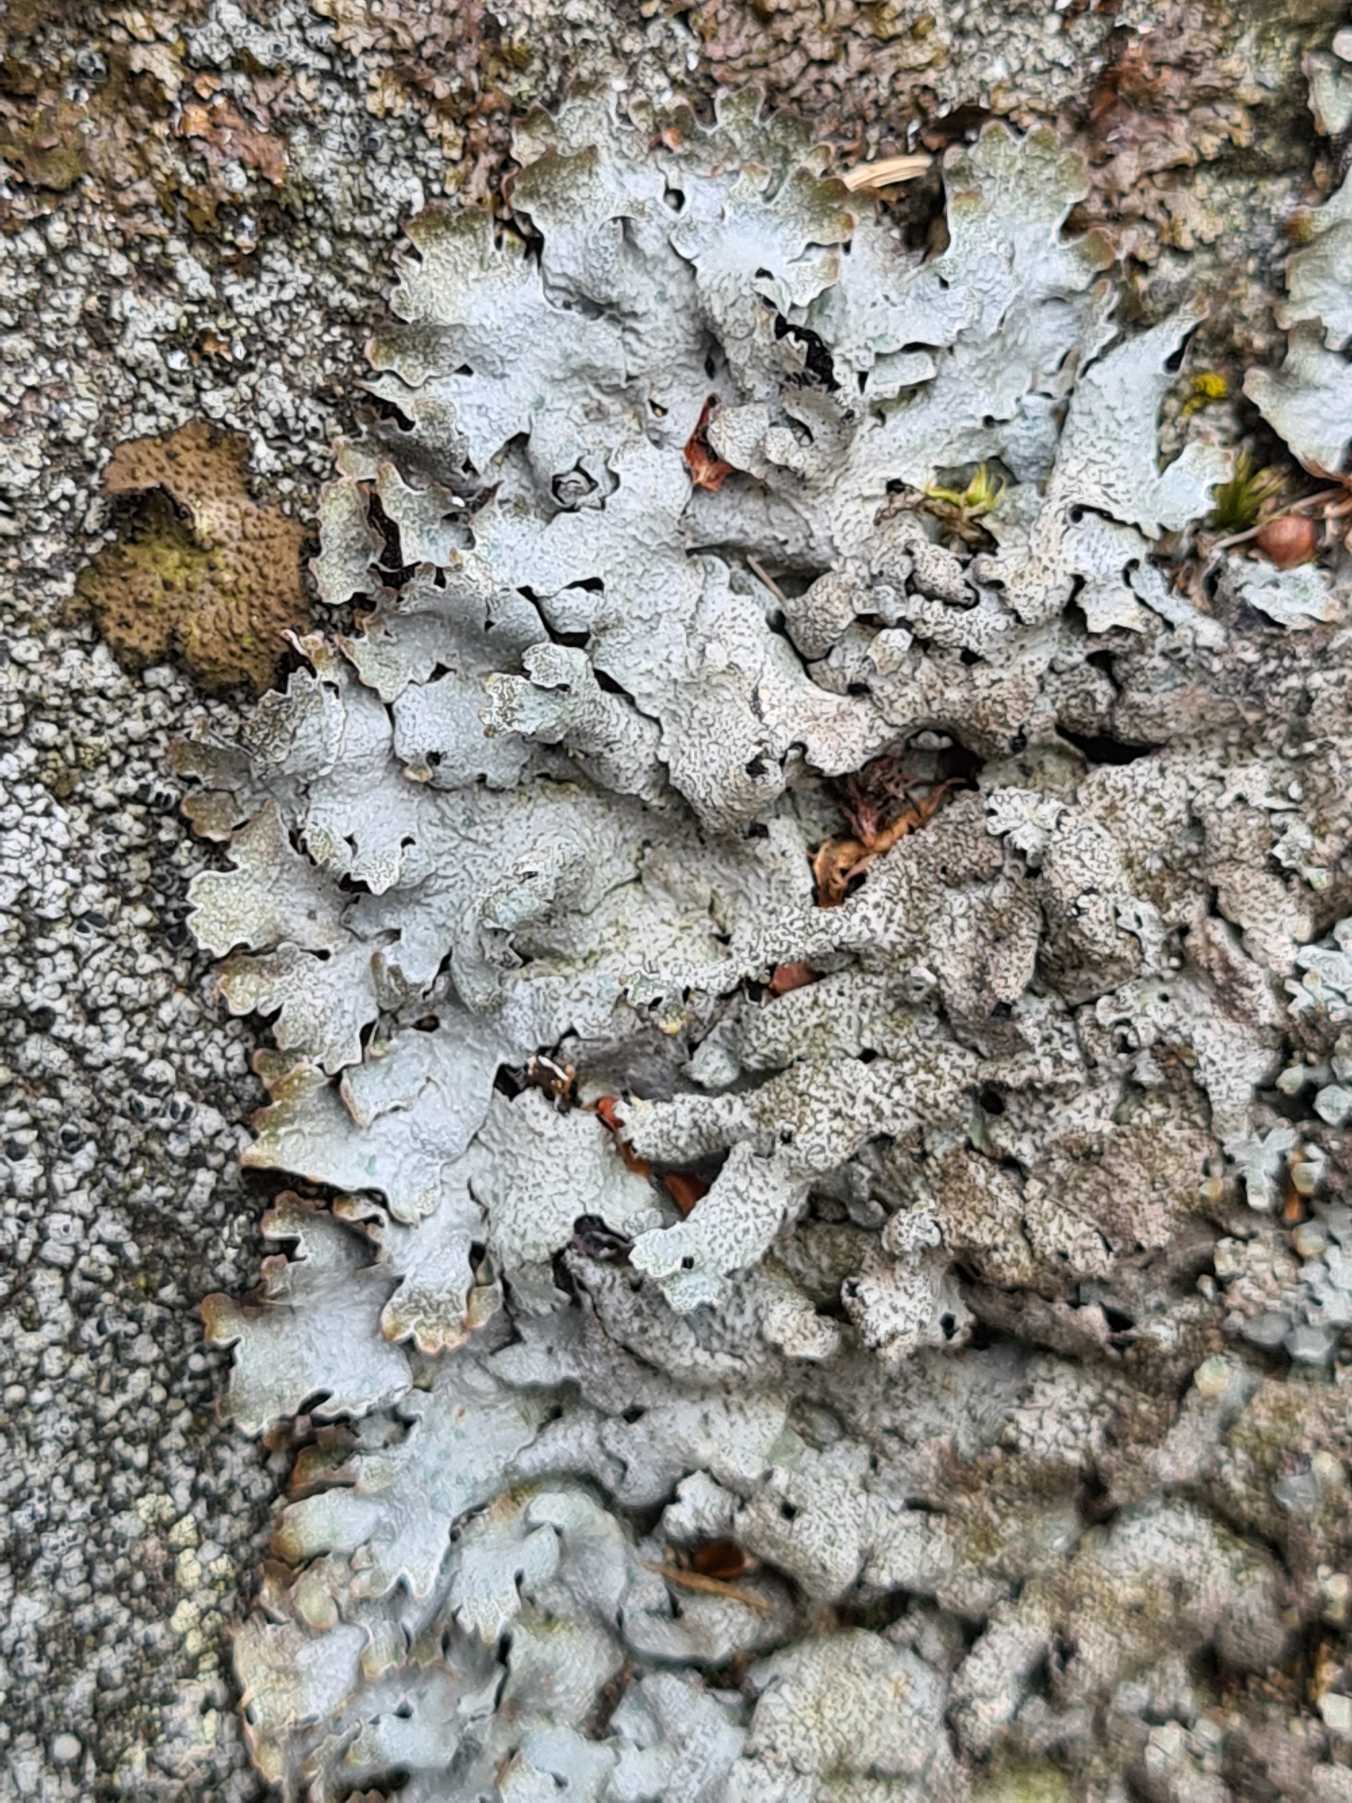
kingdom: Fungi
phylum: Ascomycota
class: Lecanoromycetes
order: Lecanorales
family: Parmeliaceae
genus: Parmelia
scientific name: Parmelia saxatilis
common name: Farve-skållav
